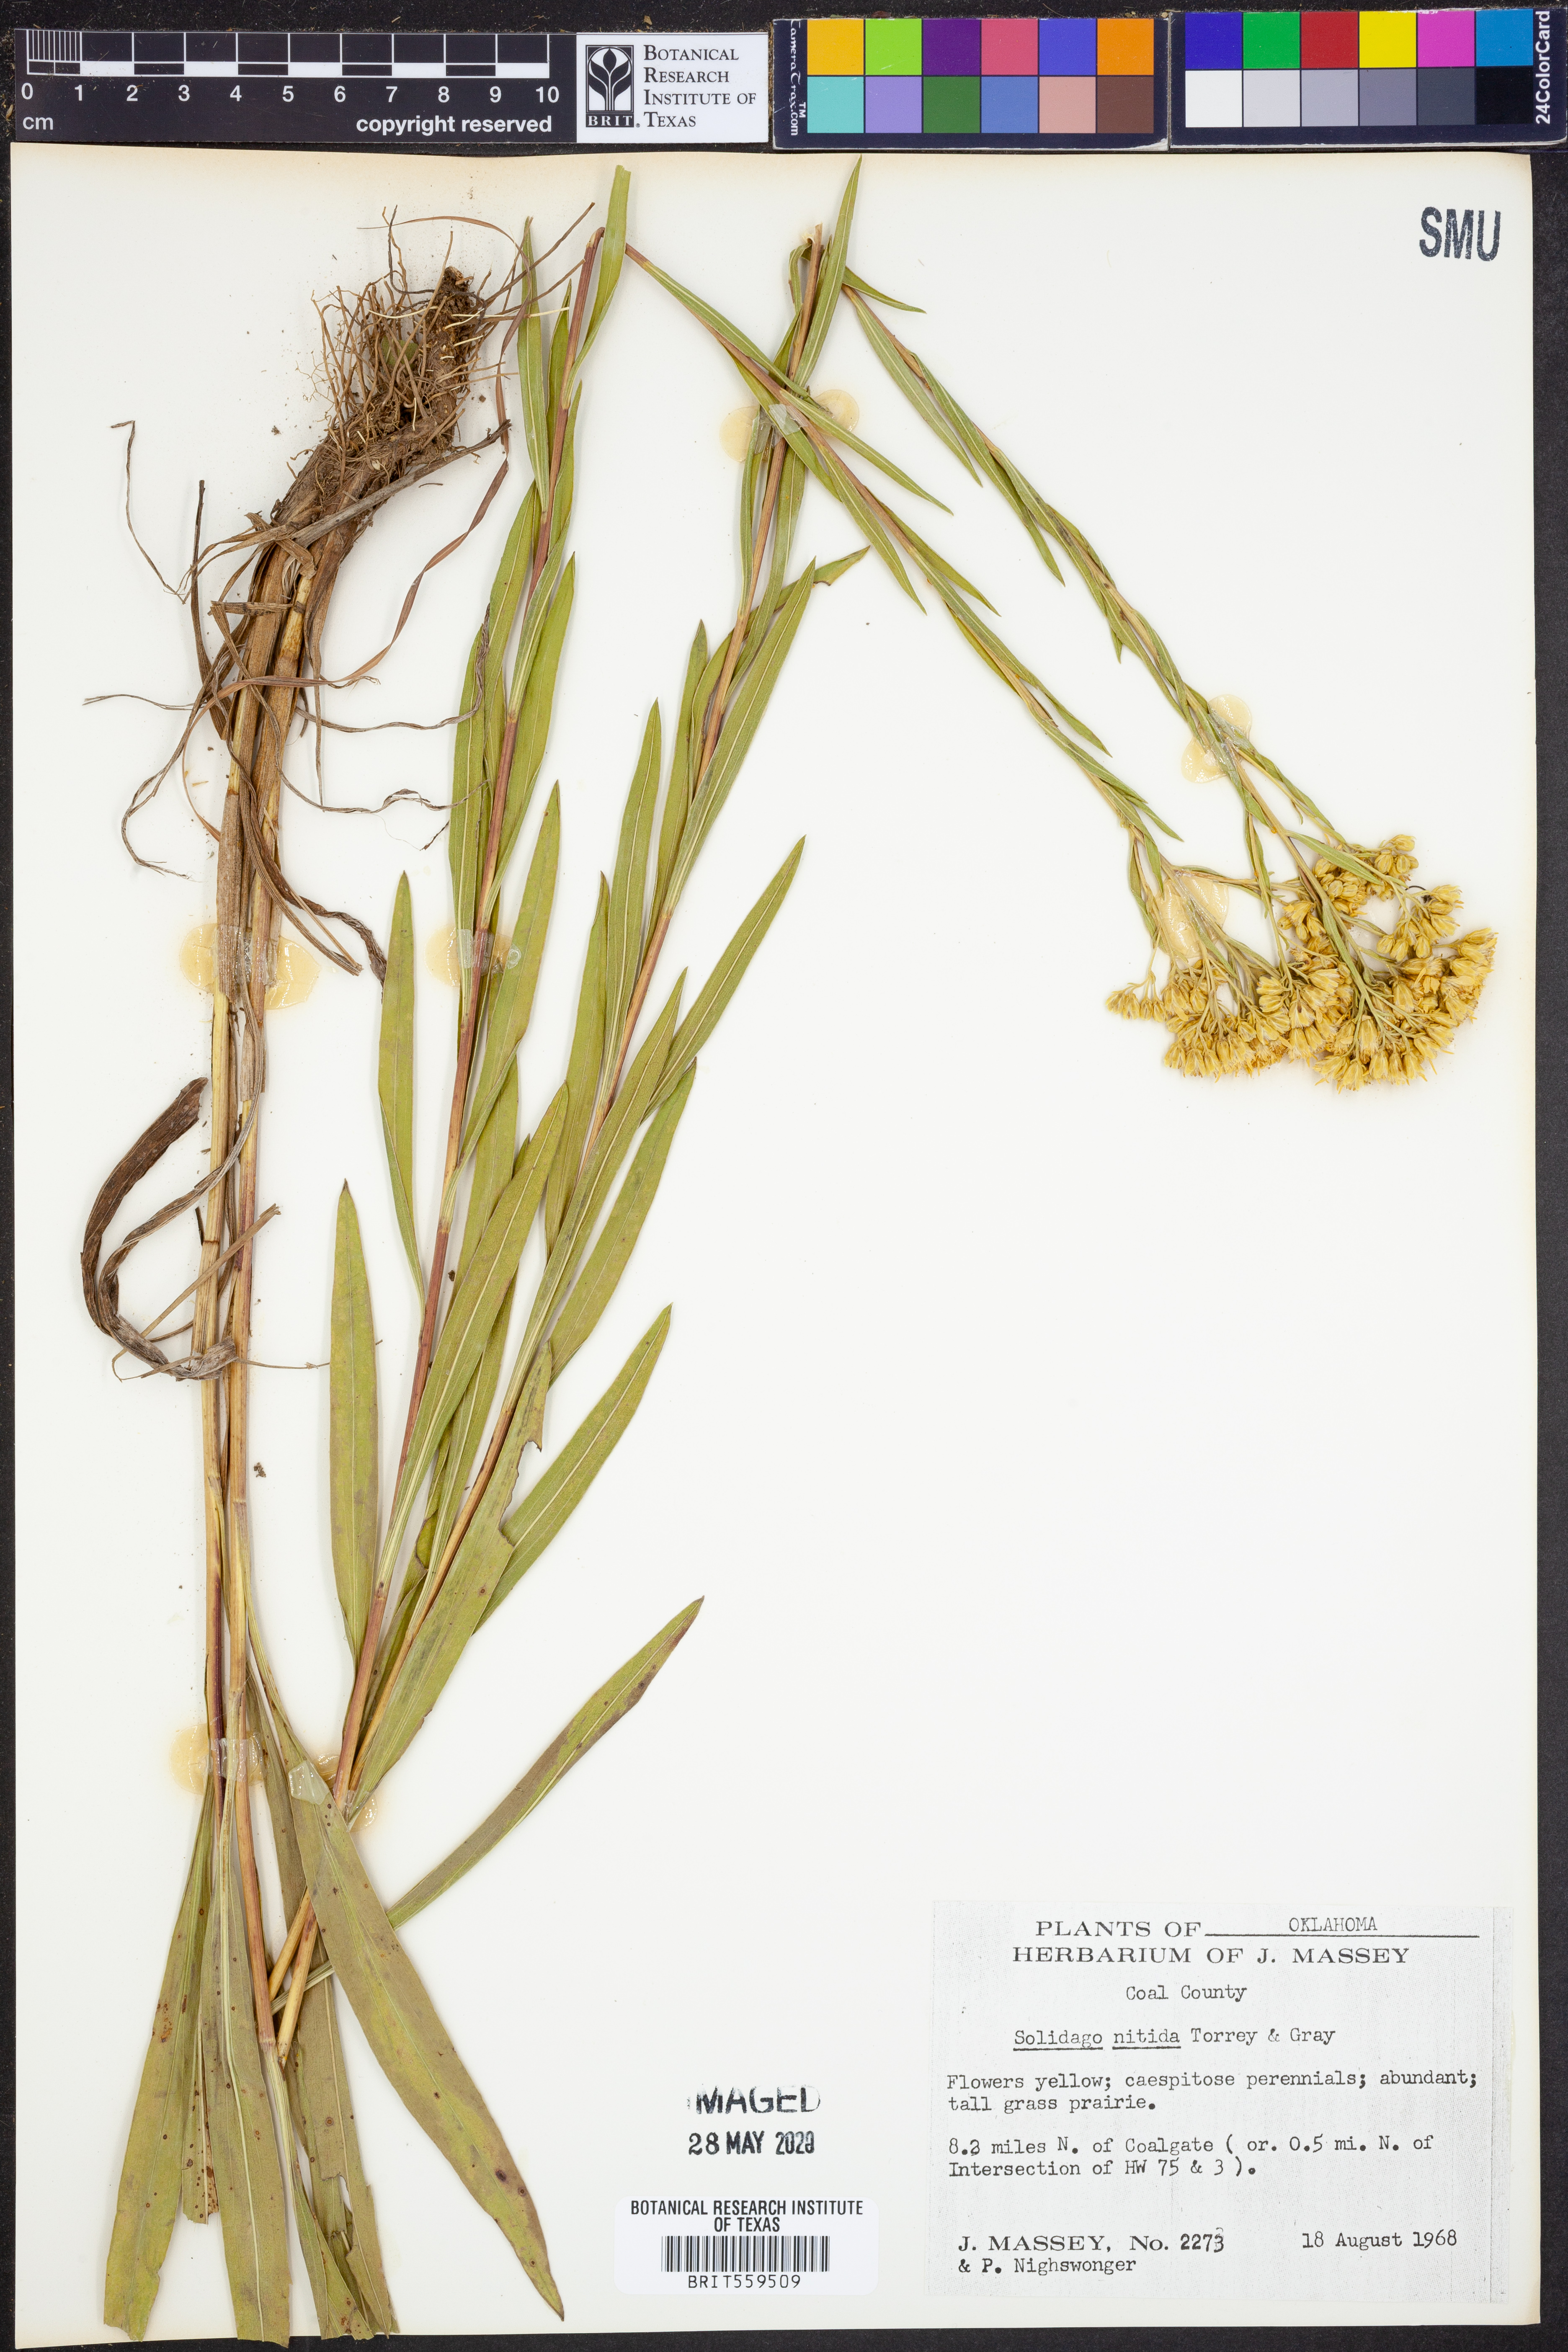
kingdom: Plantae
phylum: Tracheophyta
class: Magnoliopsida
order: Asterales
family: Asteraceae
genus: Solidago
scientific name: Solidago nitida
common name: Shiny goldenrod
